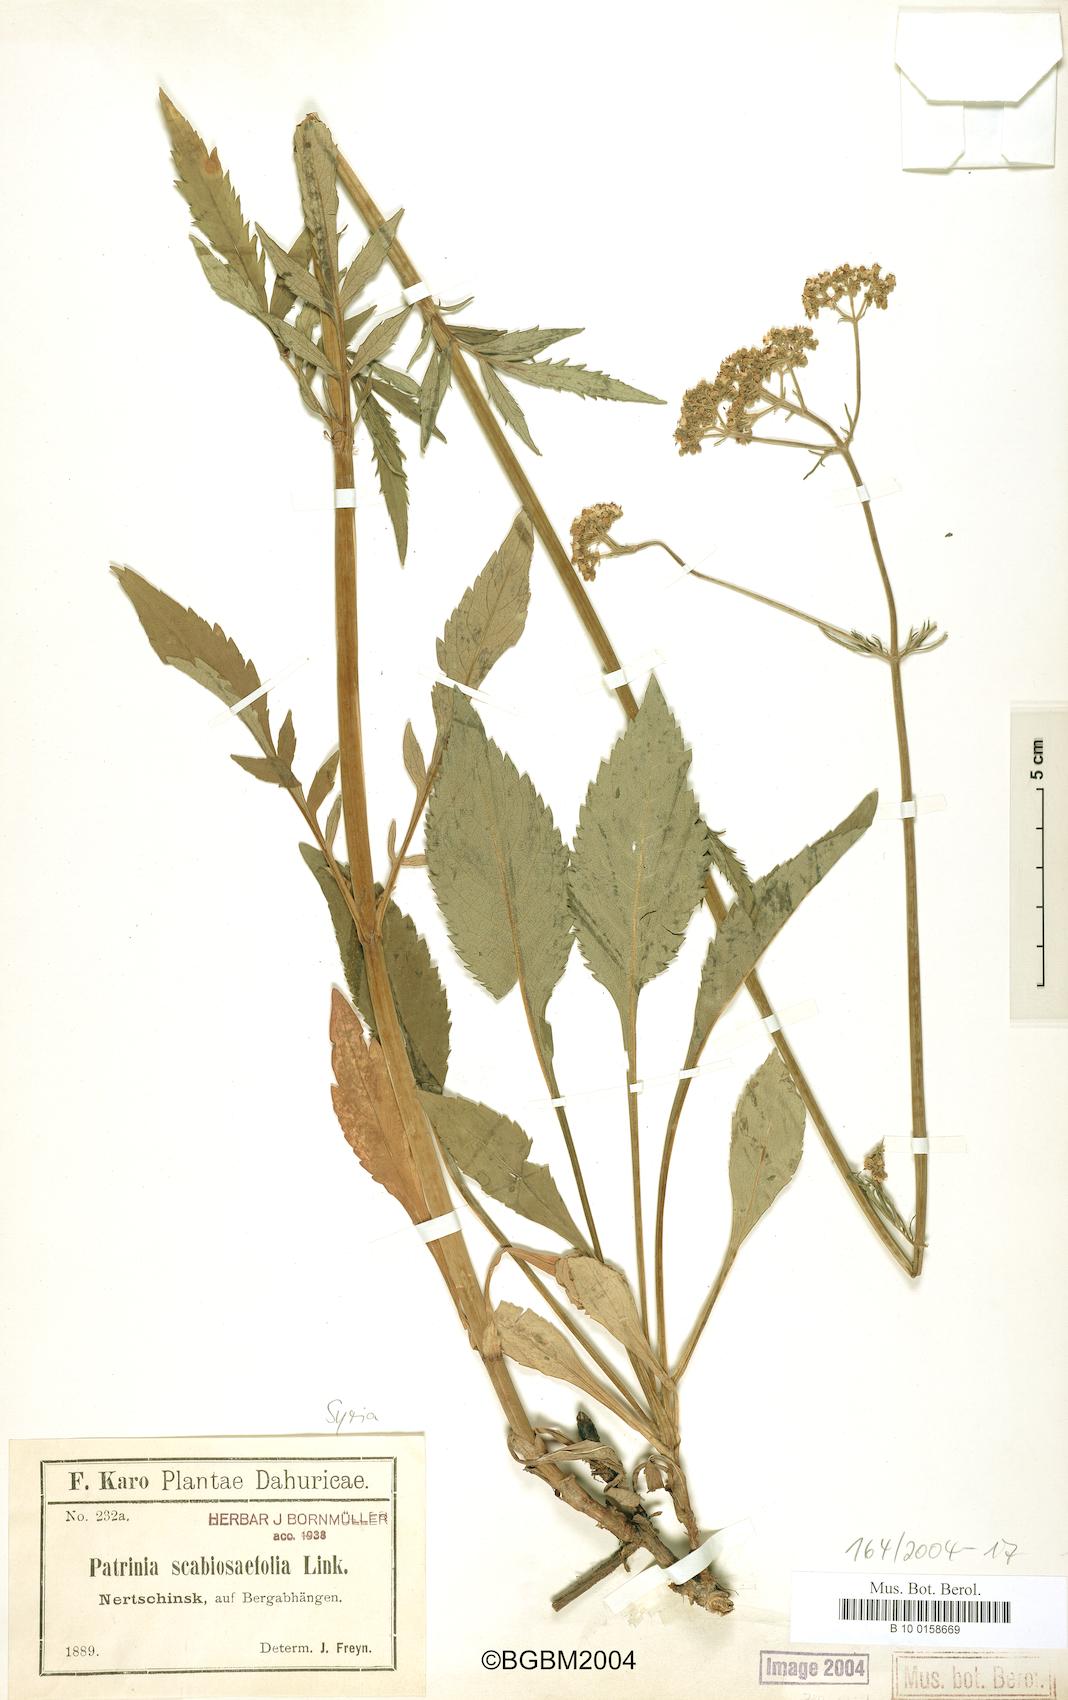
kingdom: Plantae
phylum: Tracheophyta
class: Magnoliopsida
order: Dipsacales
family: Caprifoliaceae
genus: Patrinia
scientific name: Patrinia scabiosifolia
